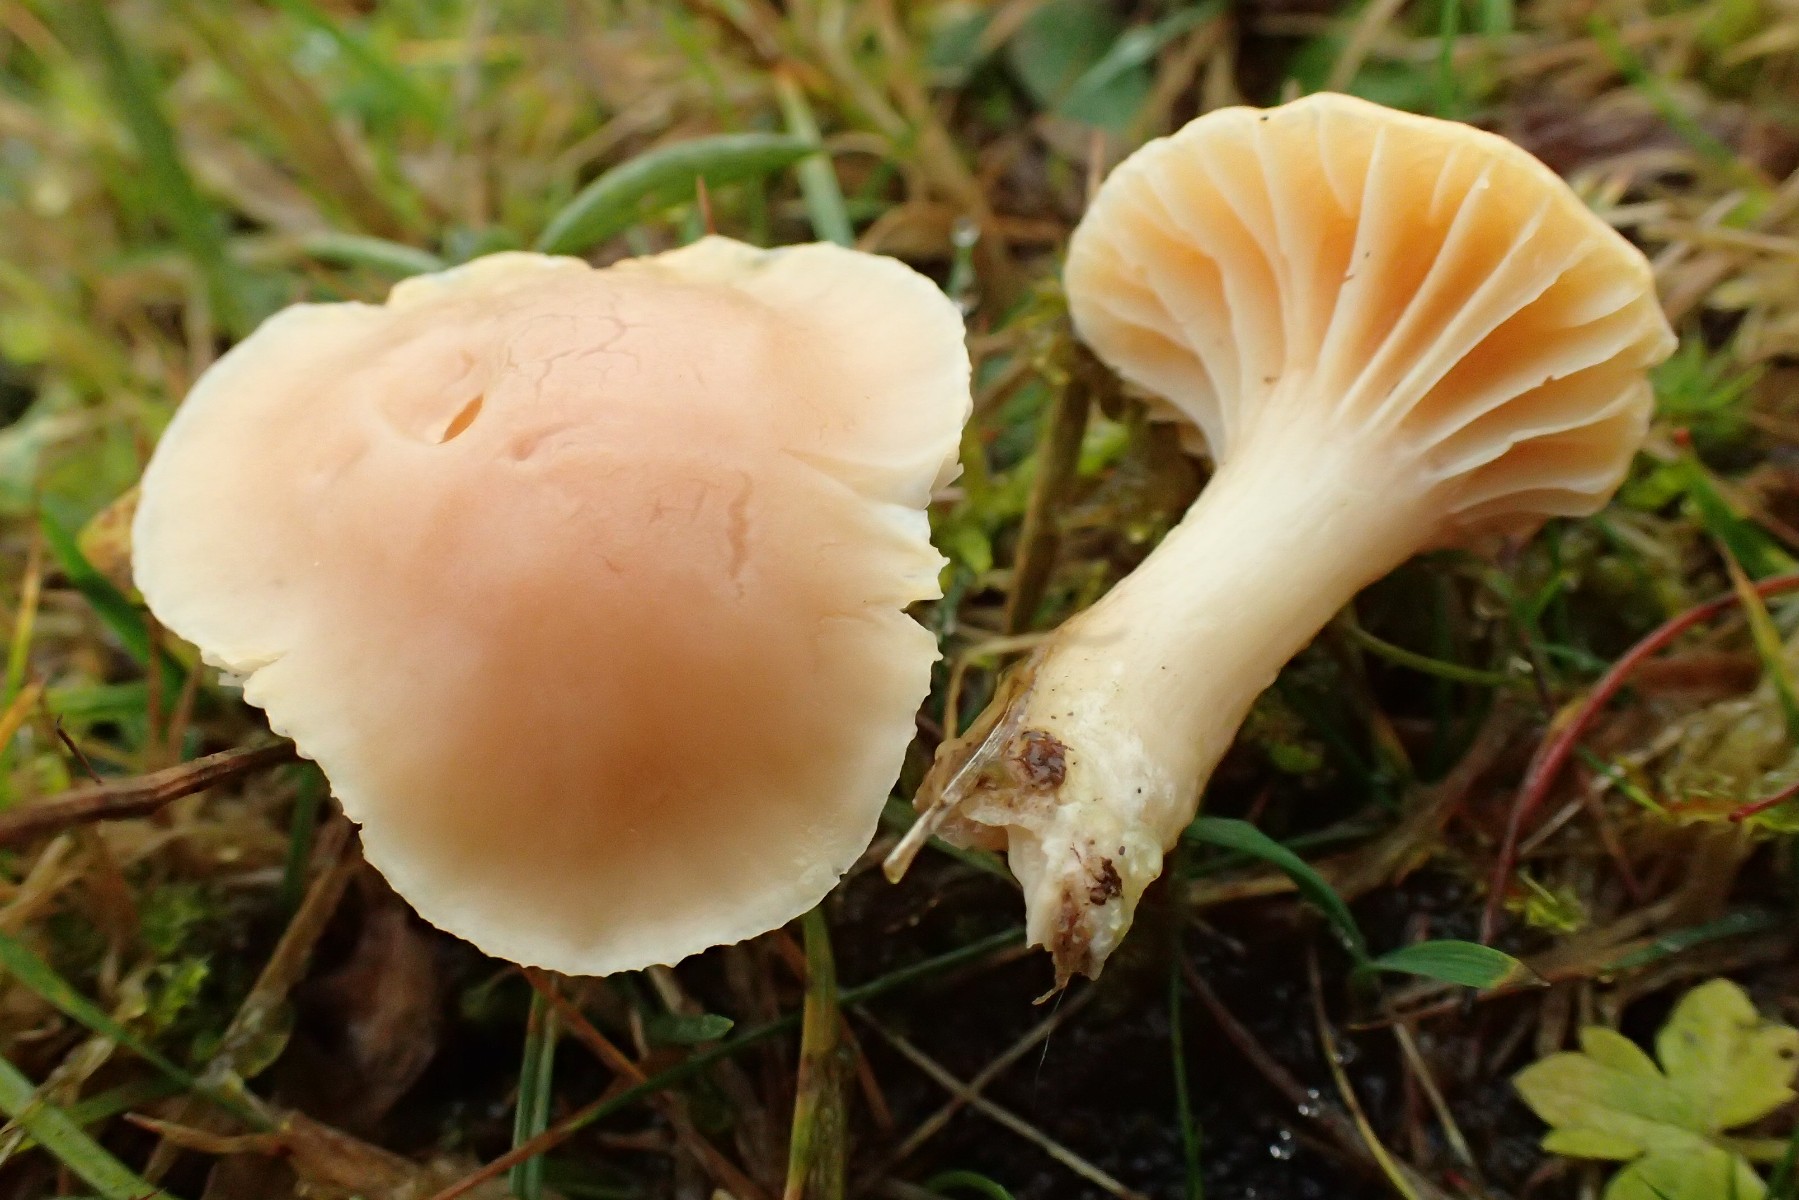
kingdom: Fungi
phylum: Basidiomycota
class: Agaricomycetes
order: Agaricales
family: Hygrophoraceae
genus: Cuphophyllus
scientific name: Cuphophyllus pratensis
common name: eng-vokshat
